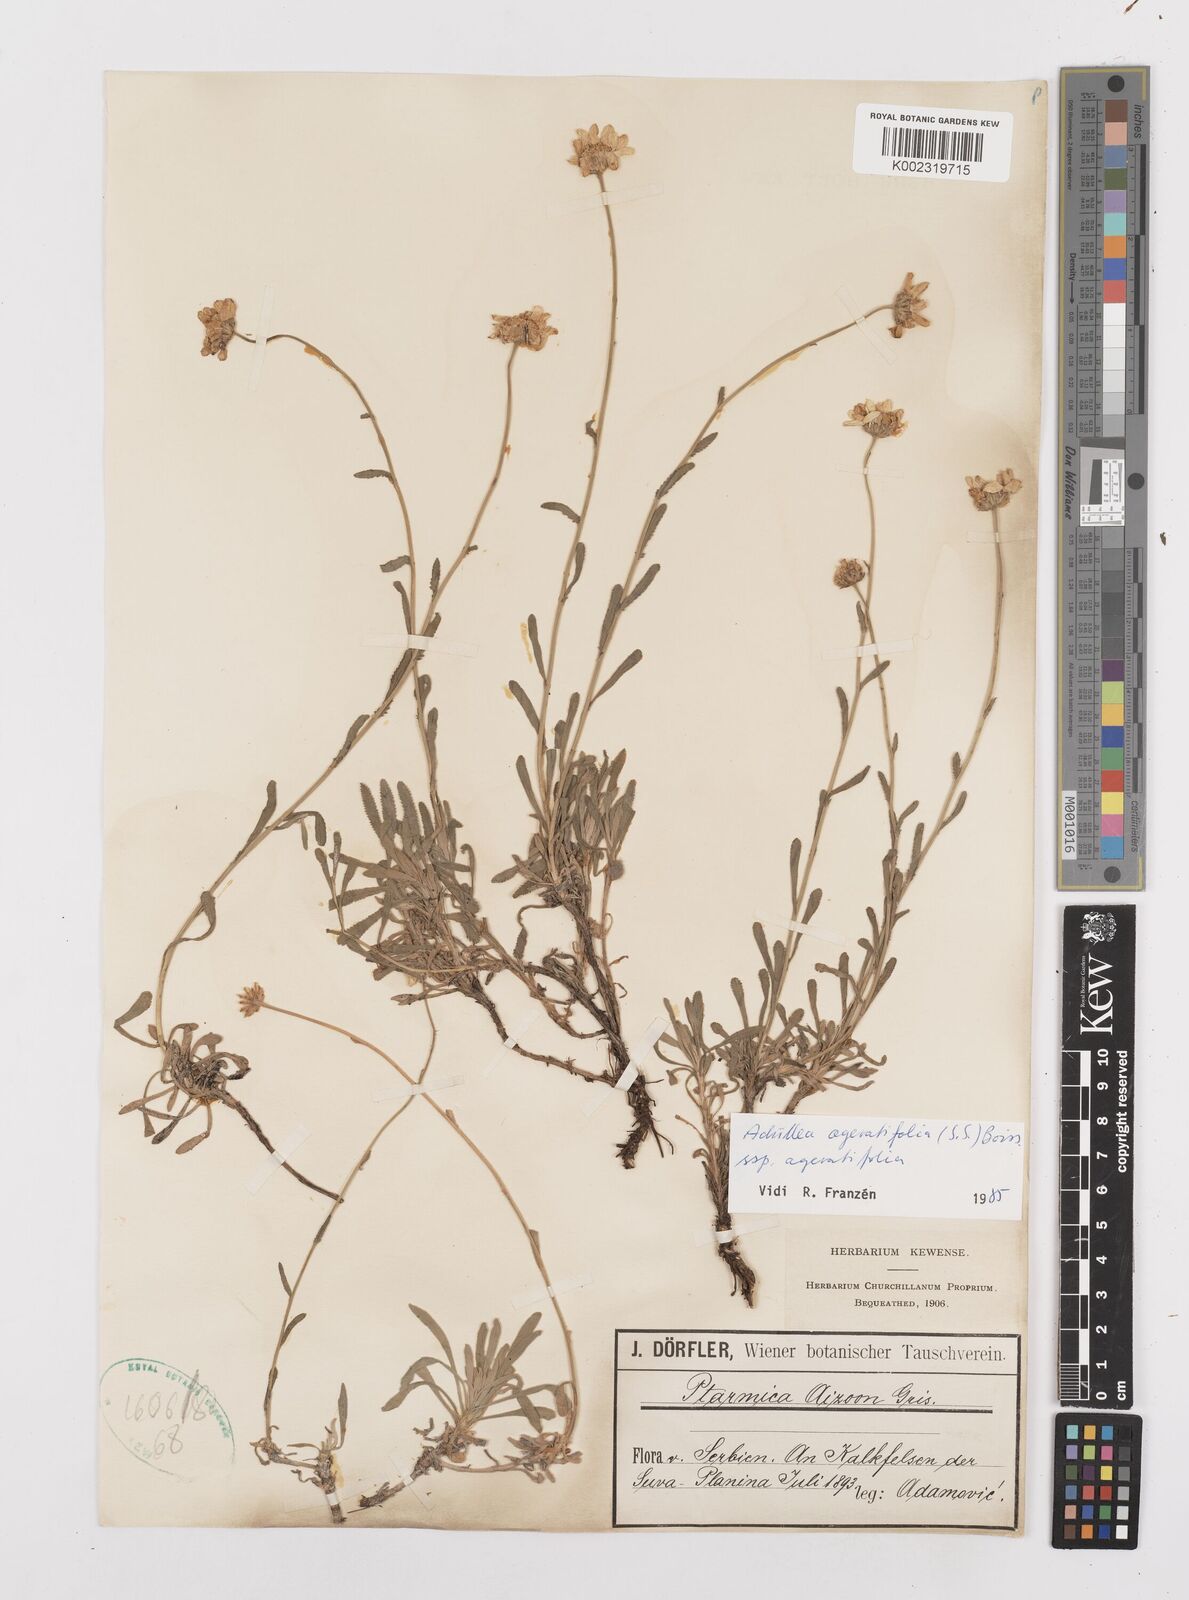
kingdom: Plantae
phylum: Tracheophyta
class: Magnoliopsida
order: Asterales
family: Asteraceae
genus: Achillea
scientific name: Achillea ageratifolia
